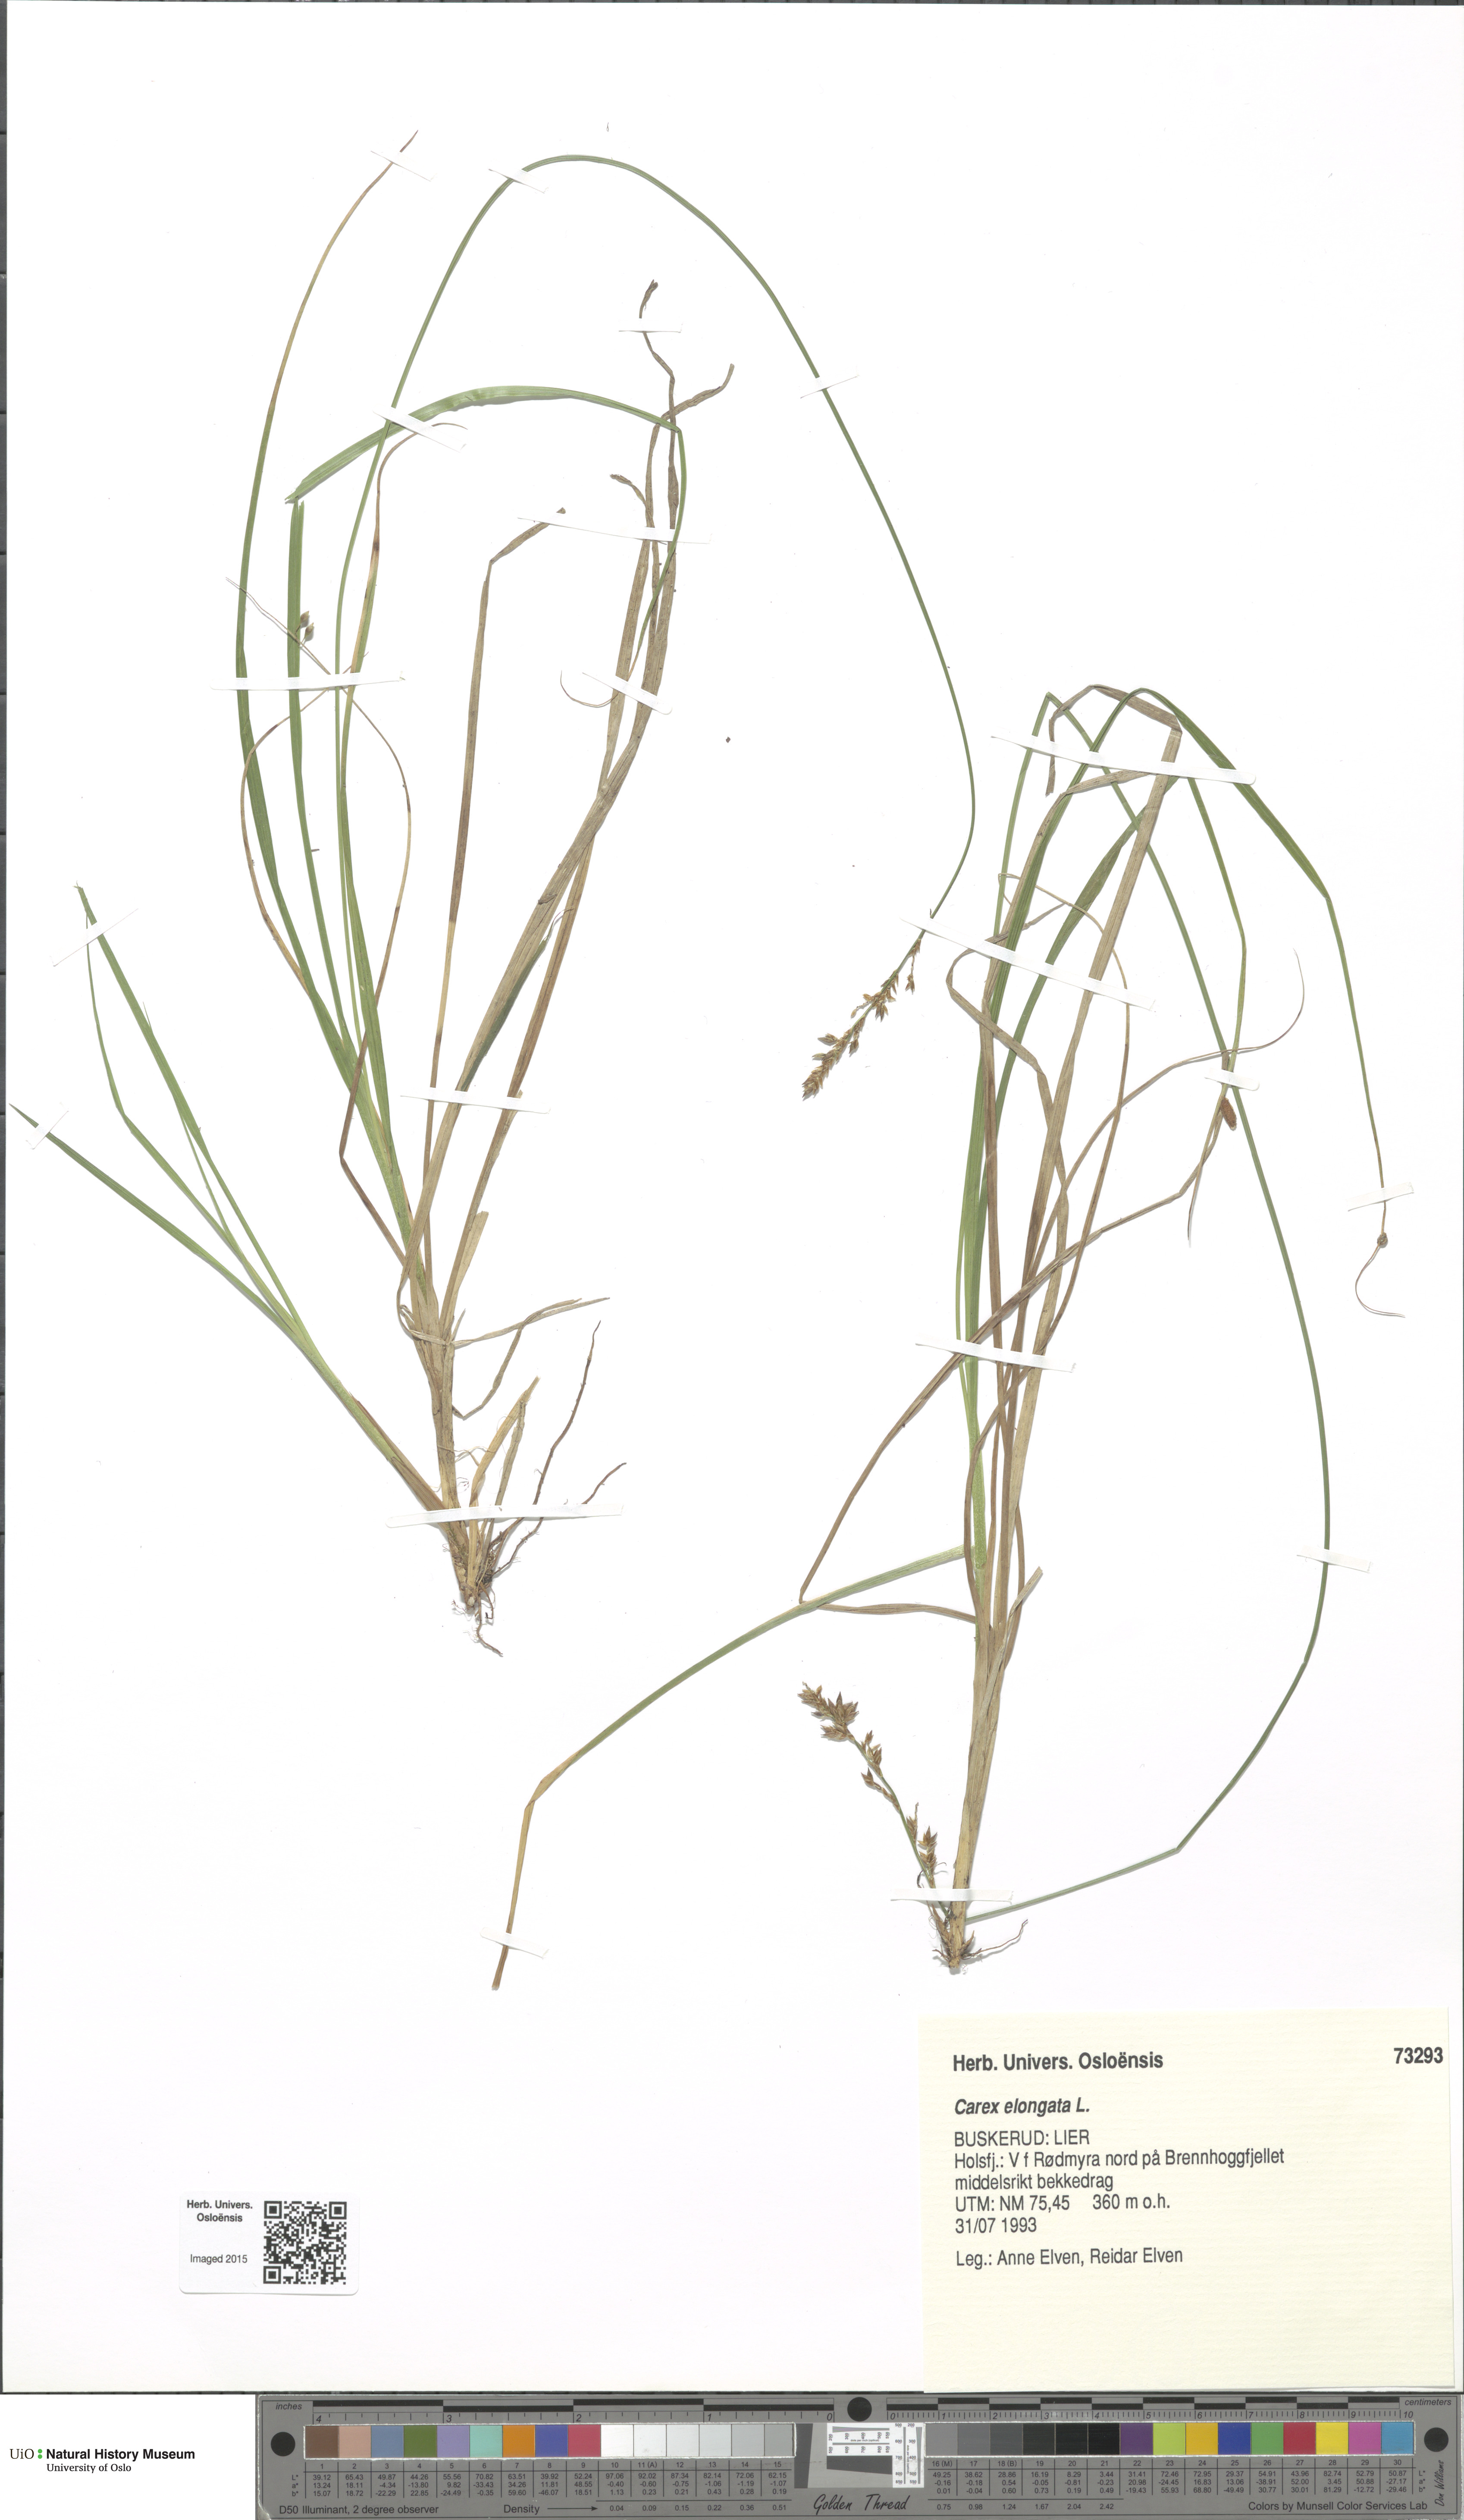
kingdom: Plantae
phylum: Tracheophyta
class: Liliopsida
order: Poales
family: Cyperaceae
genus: Carex
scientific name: Carex elongata
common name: Elongated sedge
